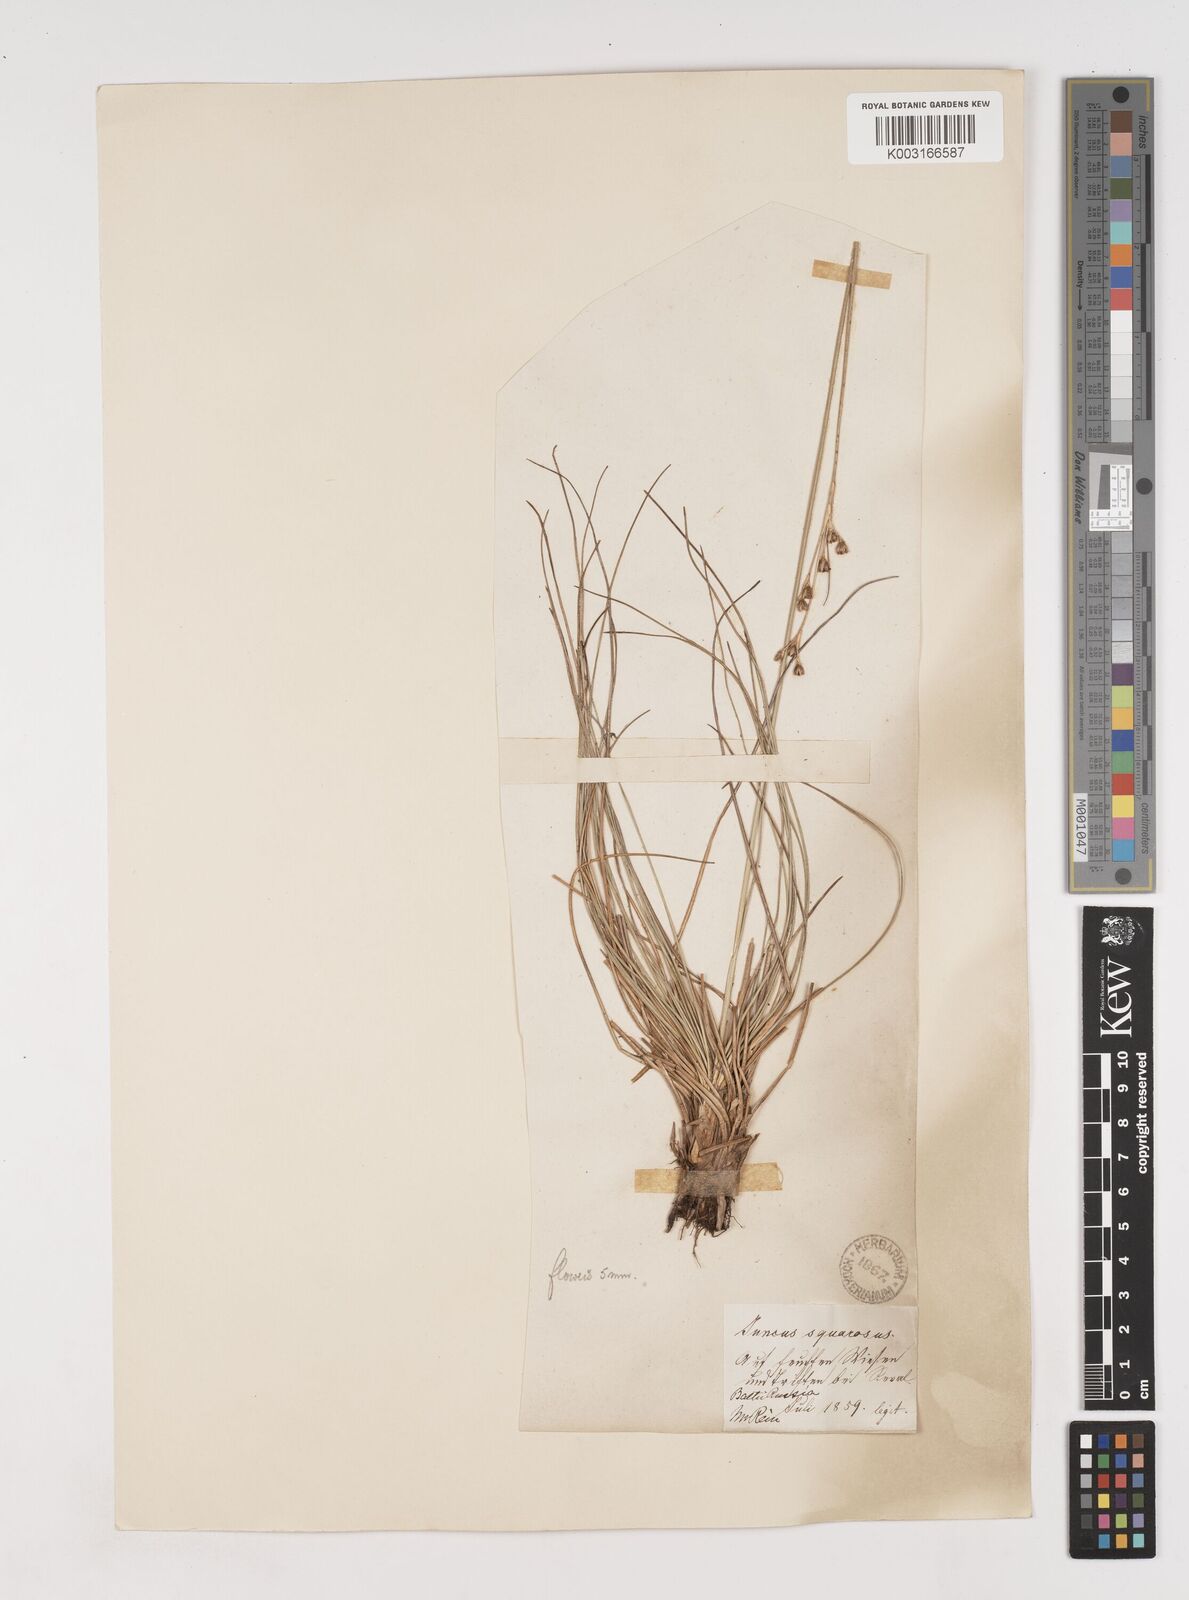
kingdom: Plantae
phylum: Tracheophyta
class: Liliopsida
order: Poales
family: Juncaceae
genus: Juncus
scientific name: Juncus squarrosus
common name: Heath rush
